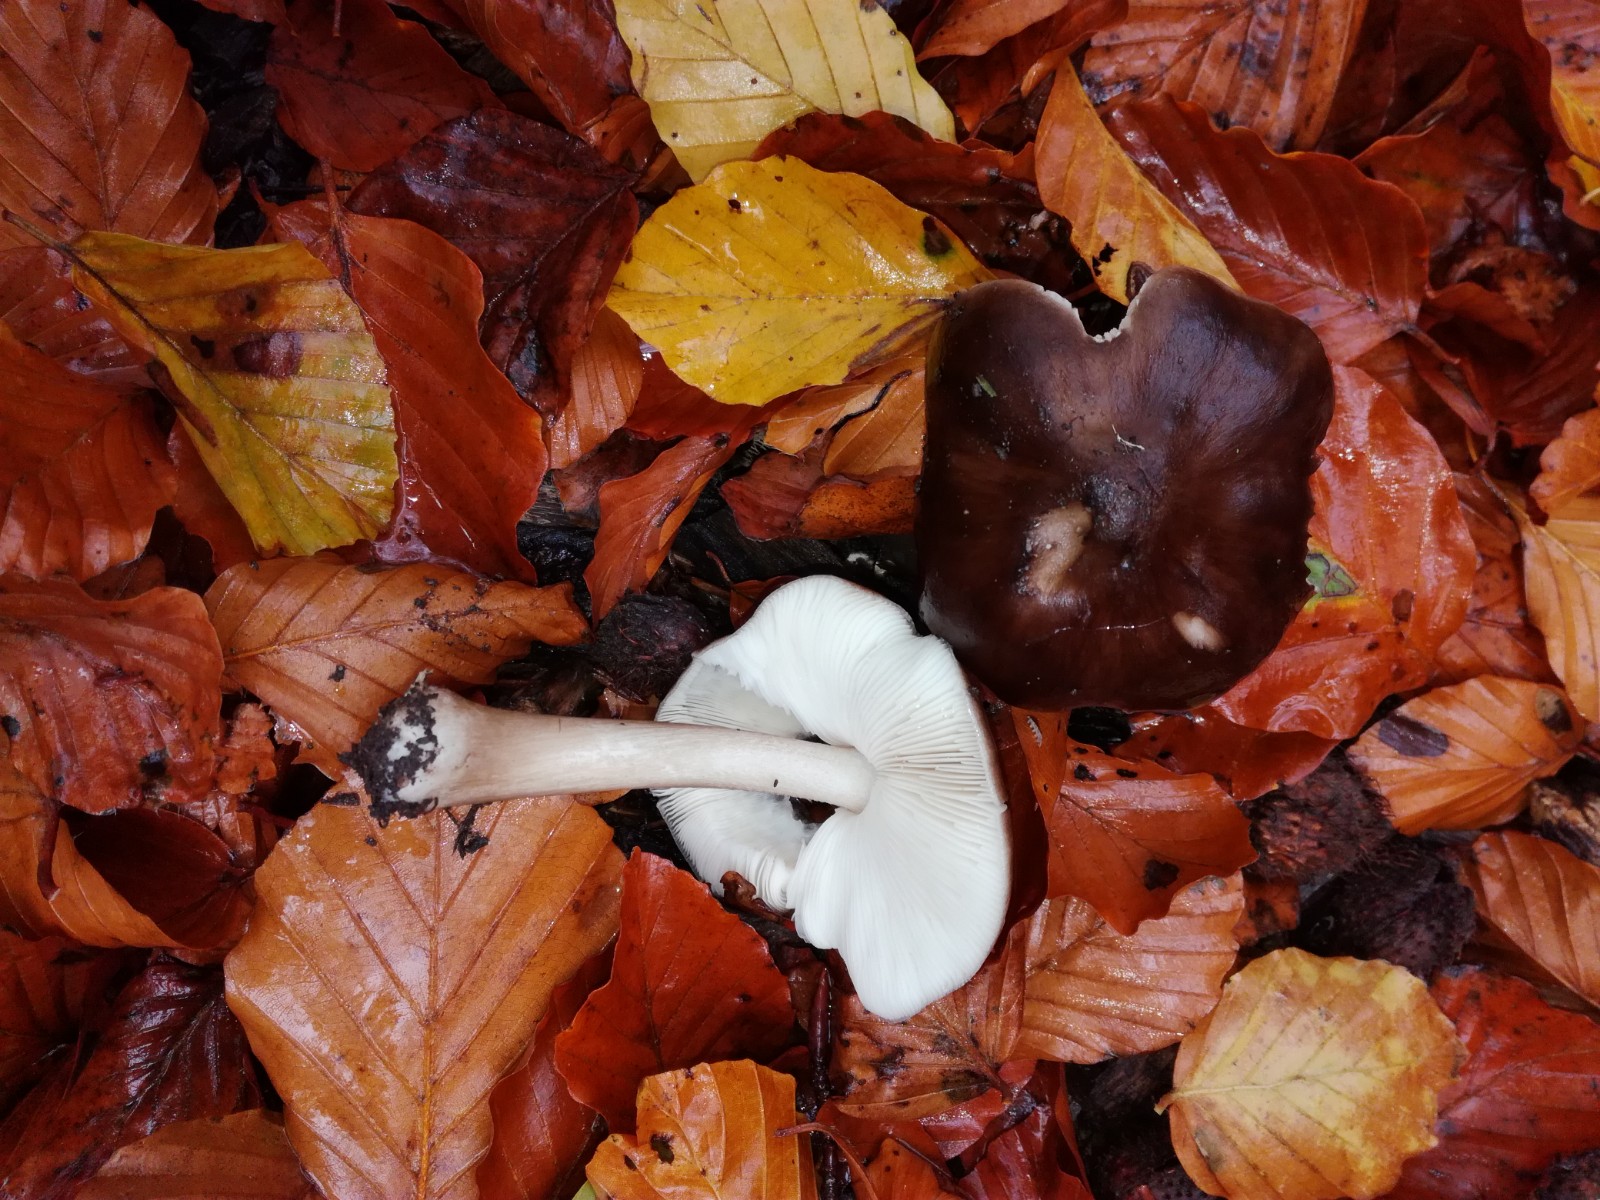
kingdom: Fungi
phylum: Basidiomycota
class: Agaricomycetes
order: Agaricales
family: Pluteaceae
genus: Pluteus
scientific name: Pluteus cervinus
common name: sodfarvet skærmhat
